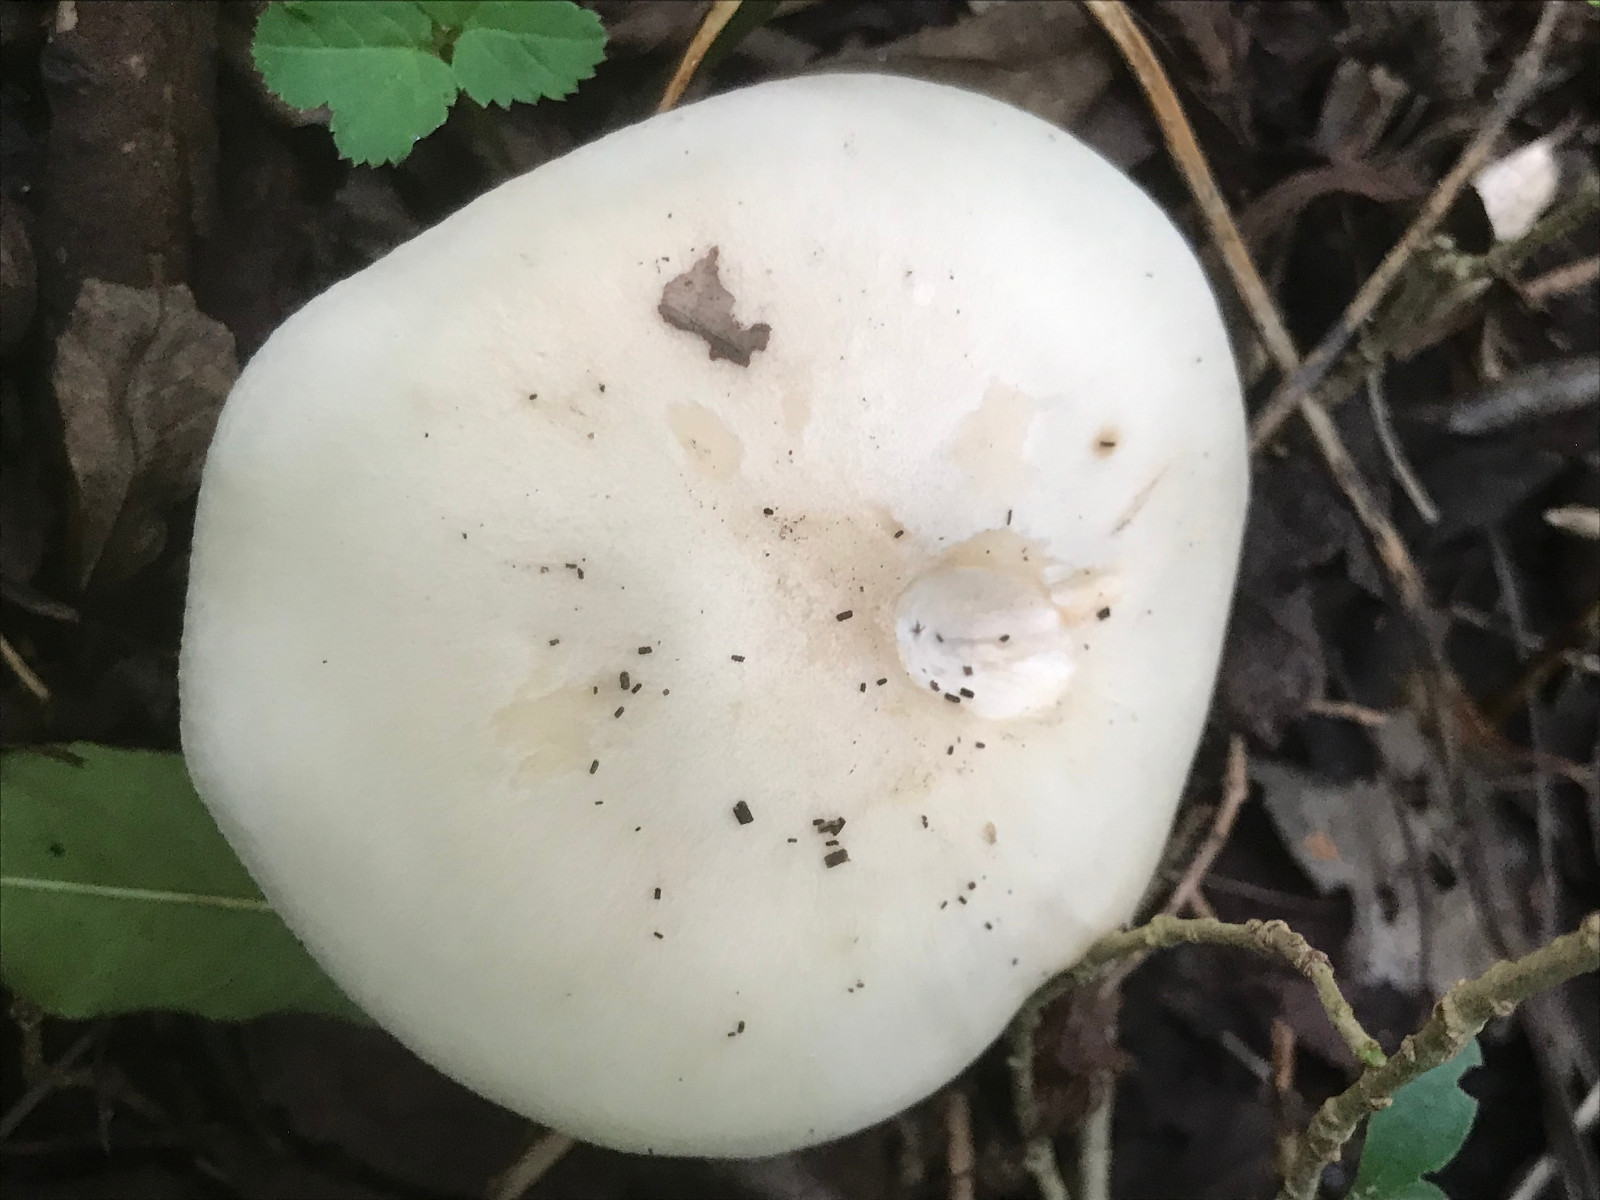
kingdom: Fungi
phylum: Basidiomycota
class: Agaricomycetes
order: Agaricales
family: Tricholomataceae
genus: Lepista
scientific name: Lepista irina
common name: violduftende hekseringshat
